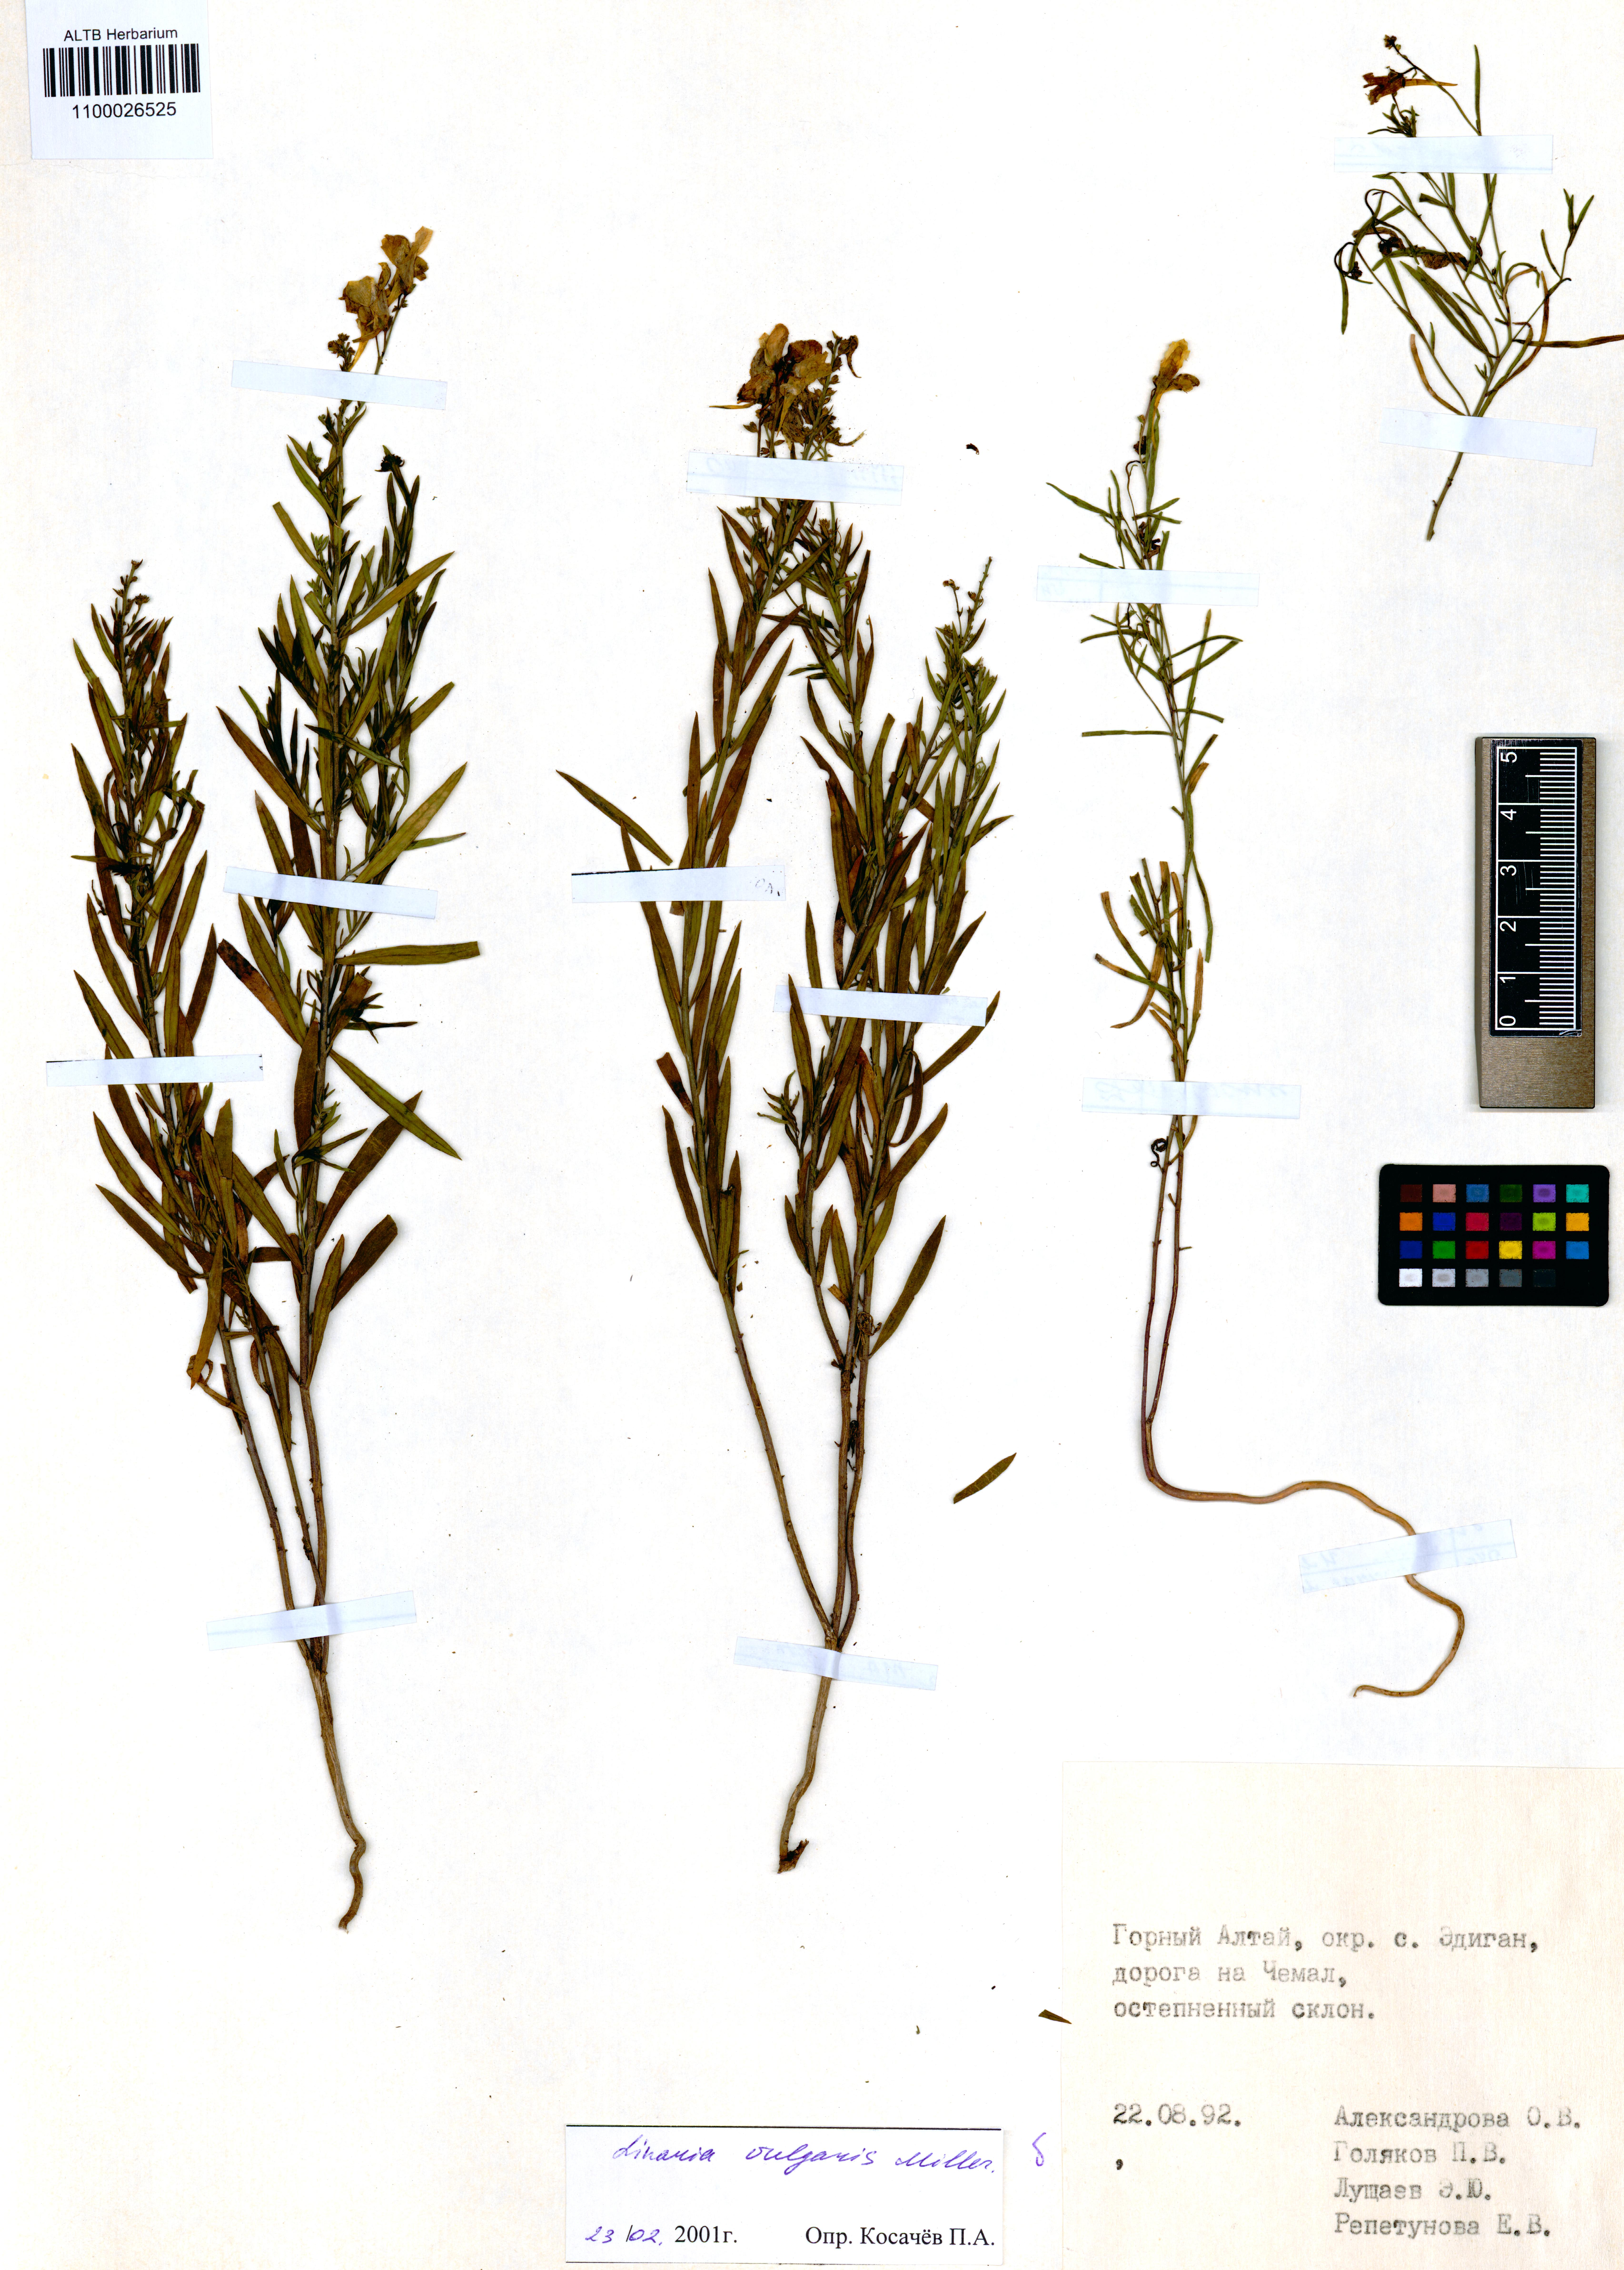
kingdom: Plantae
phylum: Tracheophyta
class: Magnoliopsida
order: Lamiales
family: Plantaginaceae
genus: Linaria
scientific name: Linaria vulgaris
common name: Butter and eggs
